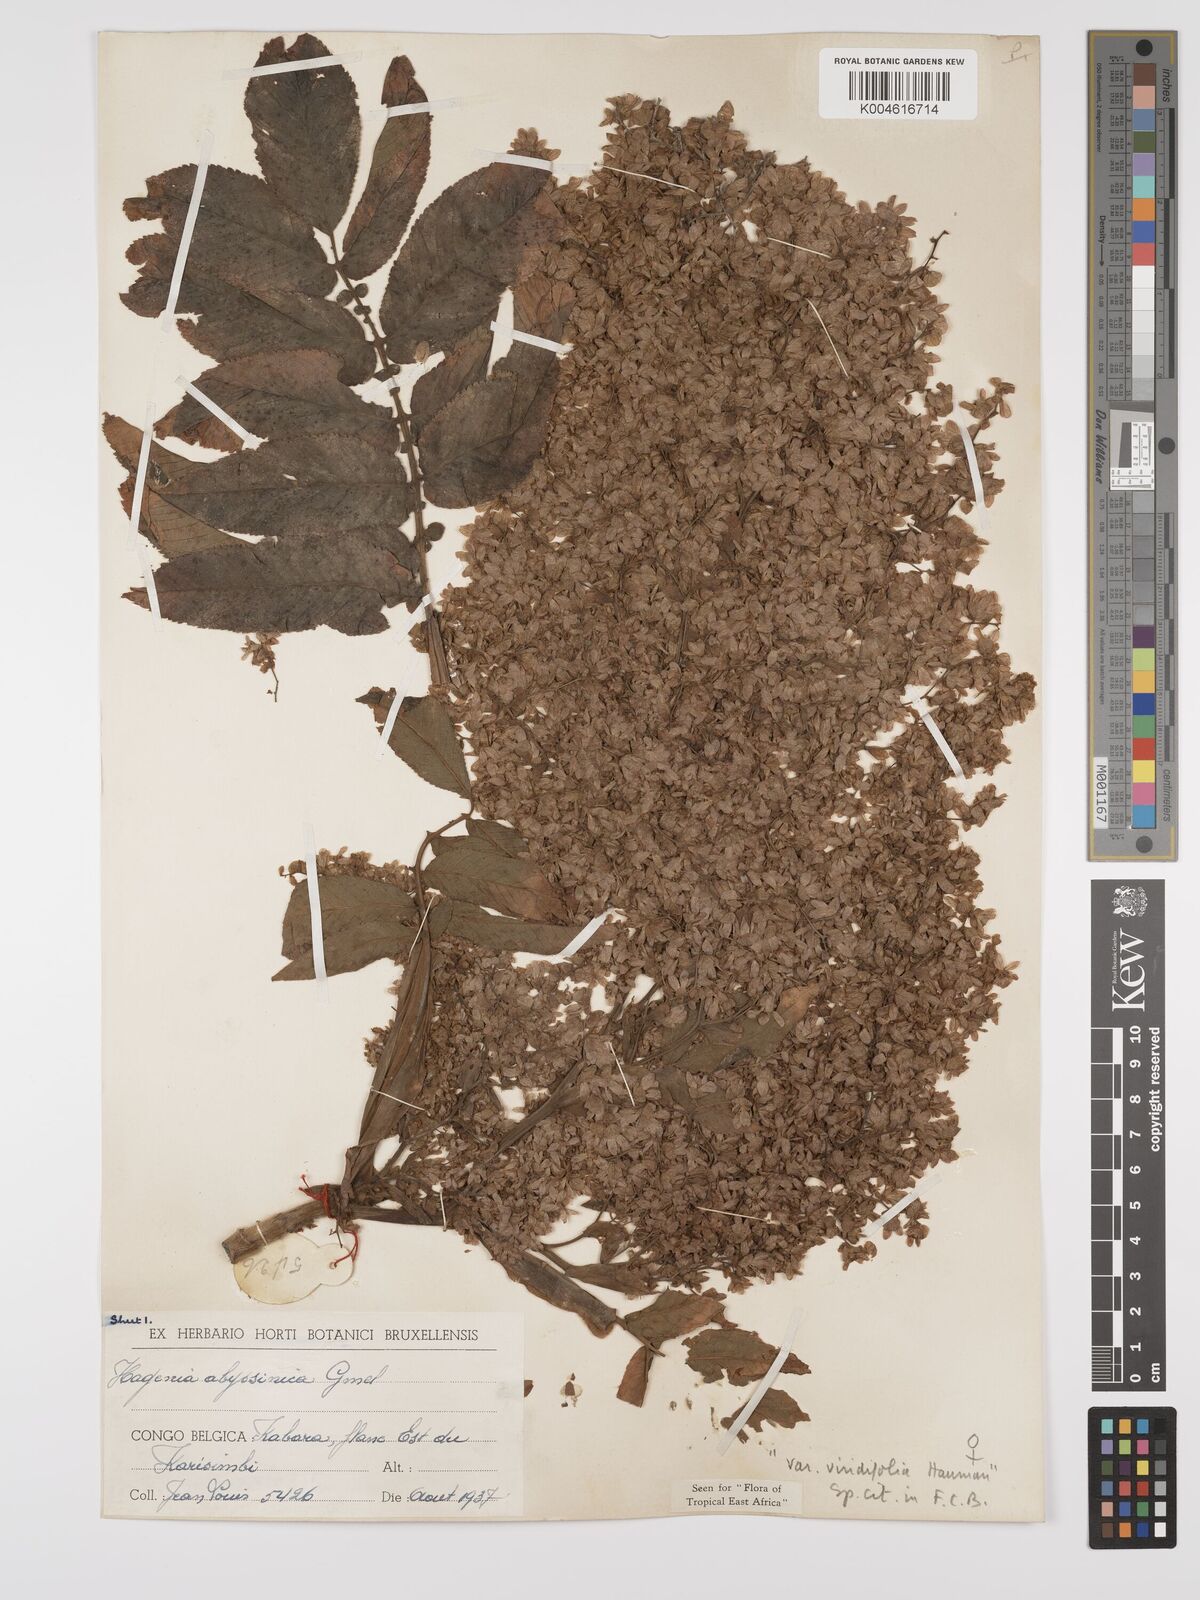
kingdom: Plantae
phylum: Tracheophyta
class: Magnoliopsida
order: Rosales
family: Rosaceae
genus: Hagenia
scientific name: Hagenia abyssinica
